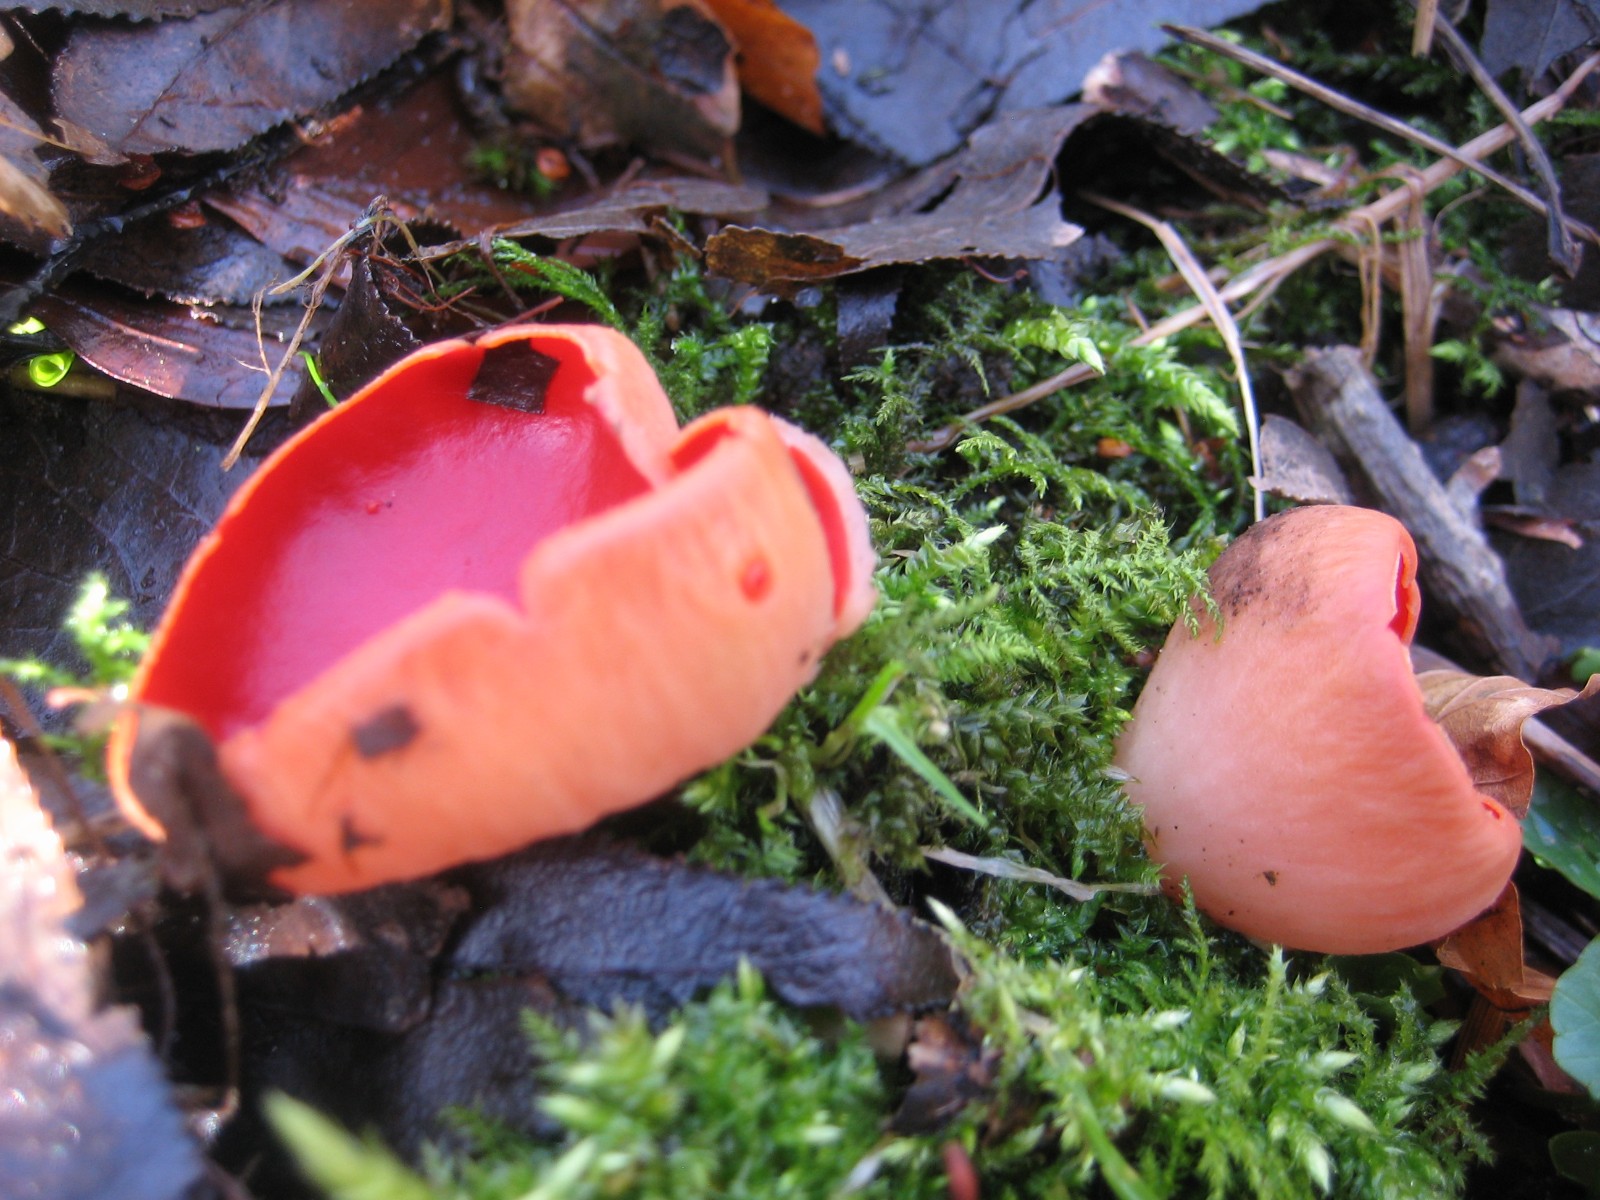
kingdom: Fungi
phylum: Ascomycota
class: Pezizomycetes
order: Pezizales
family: Sarcoscyphaceae
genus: Sarcoscypha
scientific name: Sarcoscypha austriaca
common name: krølhåret pragtbæger
